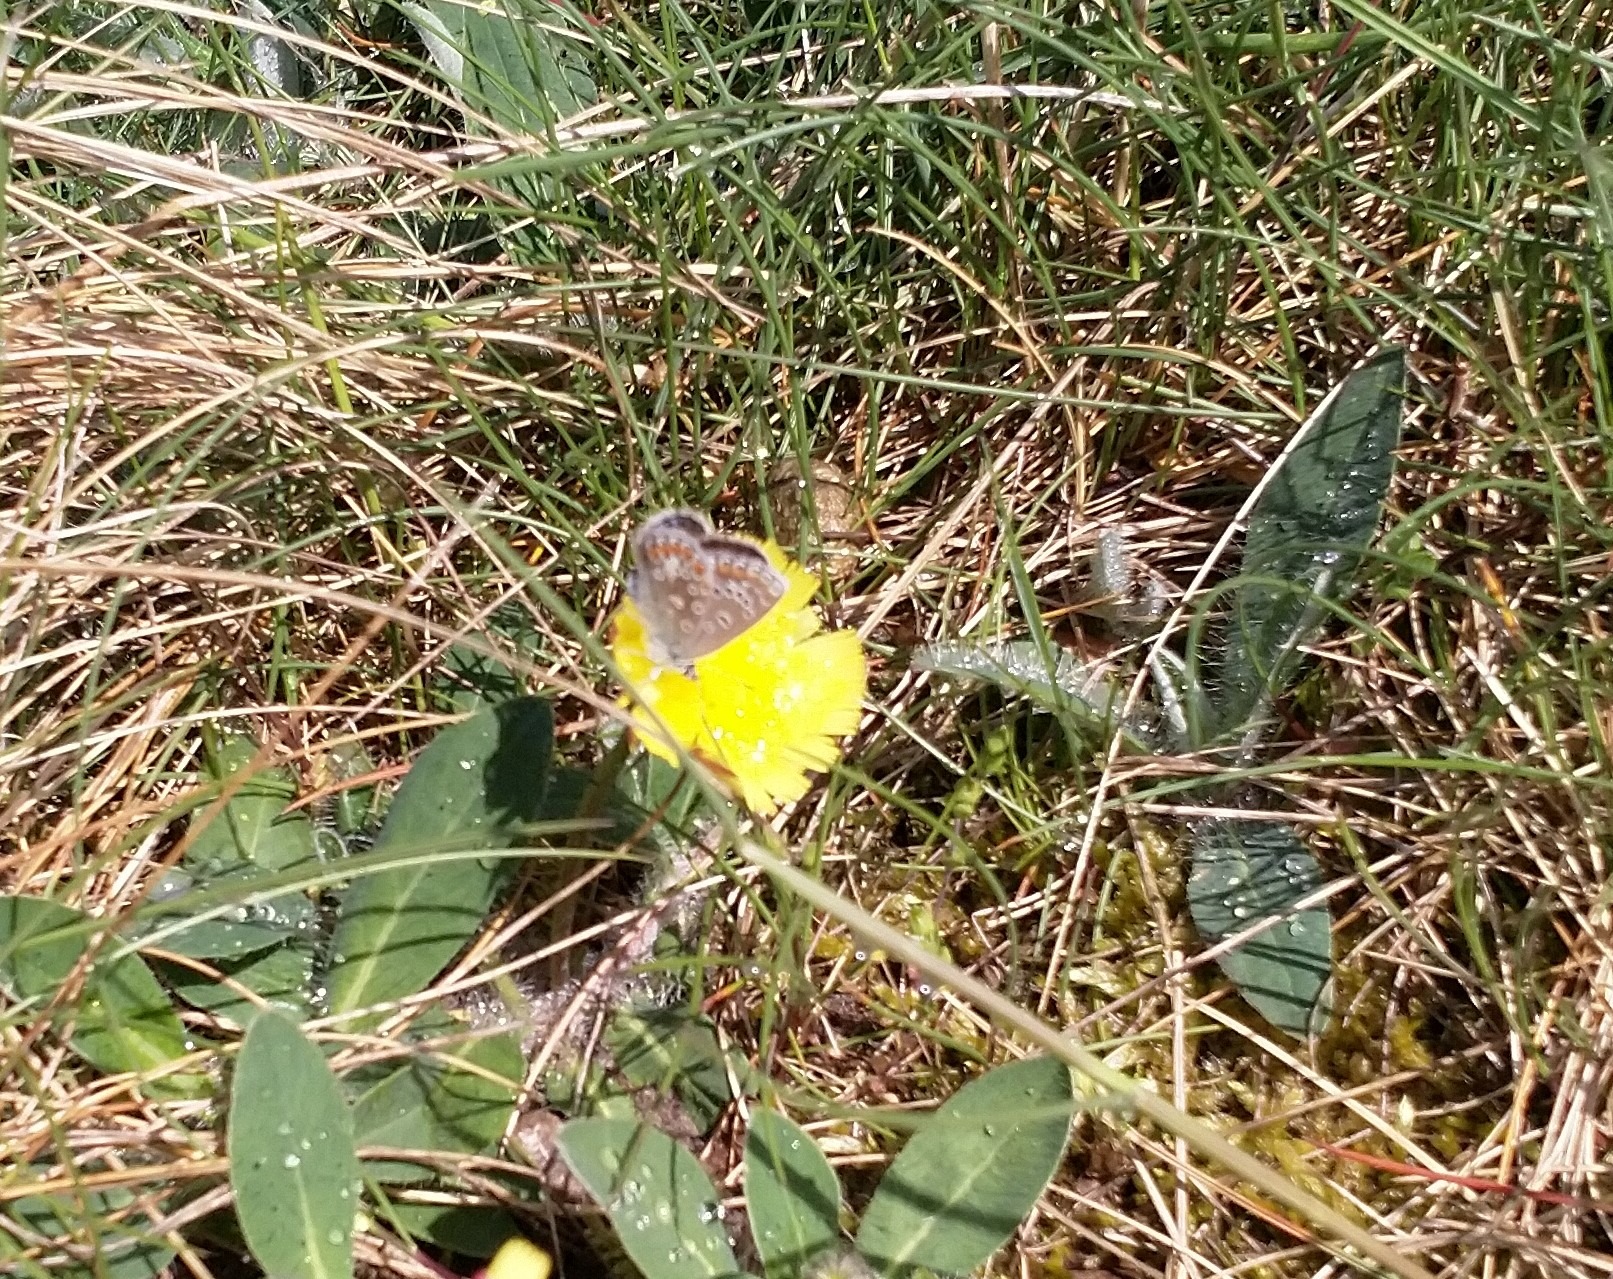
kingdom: Animalia
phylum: Arthropoda
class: Insecta
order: Lepidoptera
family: Lycaenidae
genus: Polyommatus
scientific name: Polyommatus icarus
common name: Almindelig blåfugl
